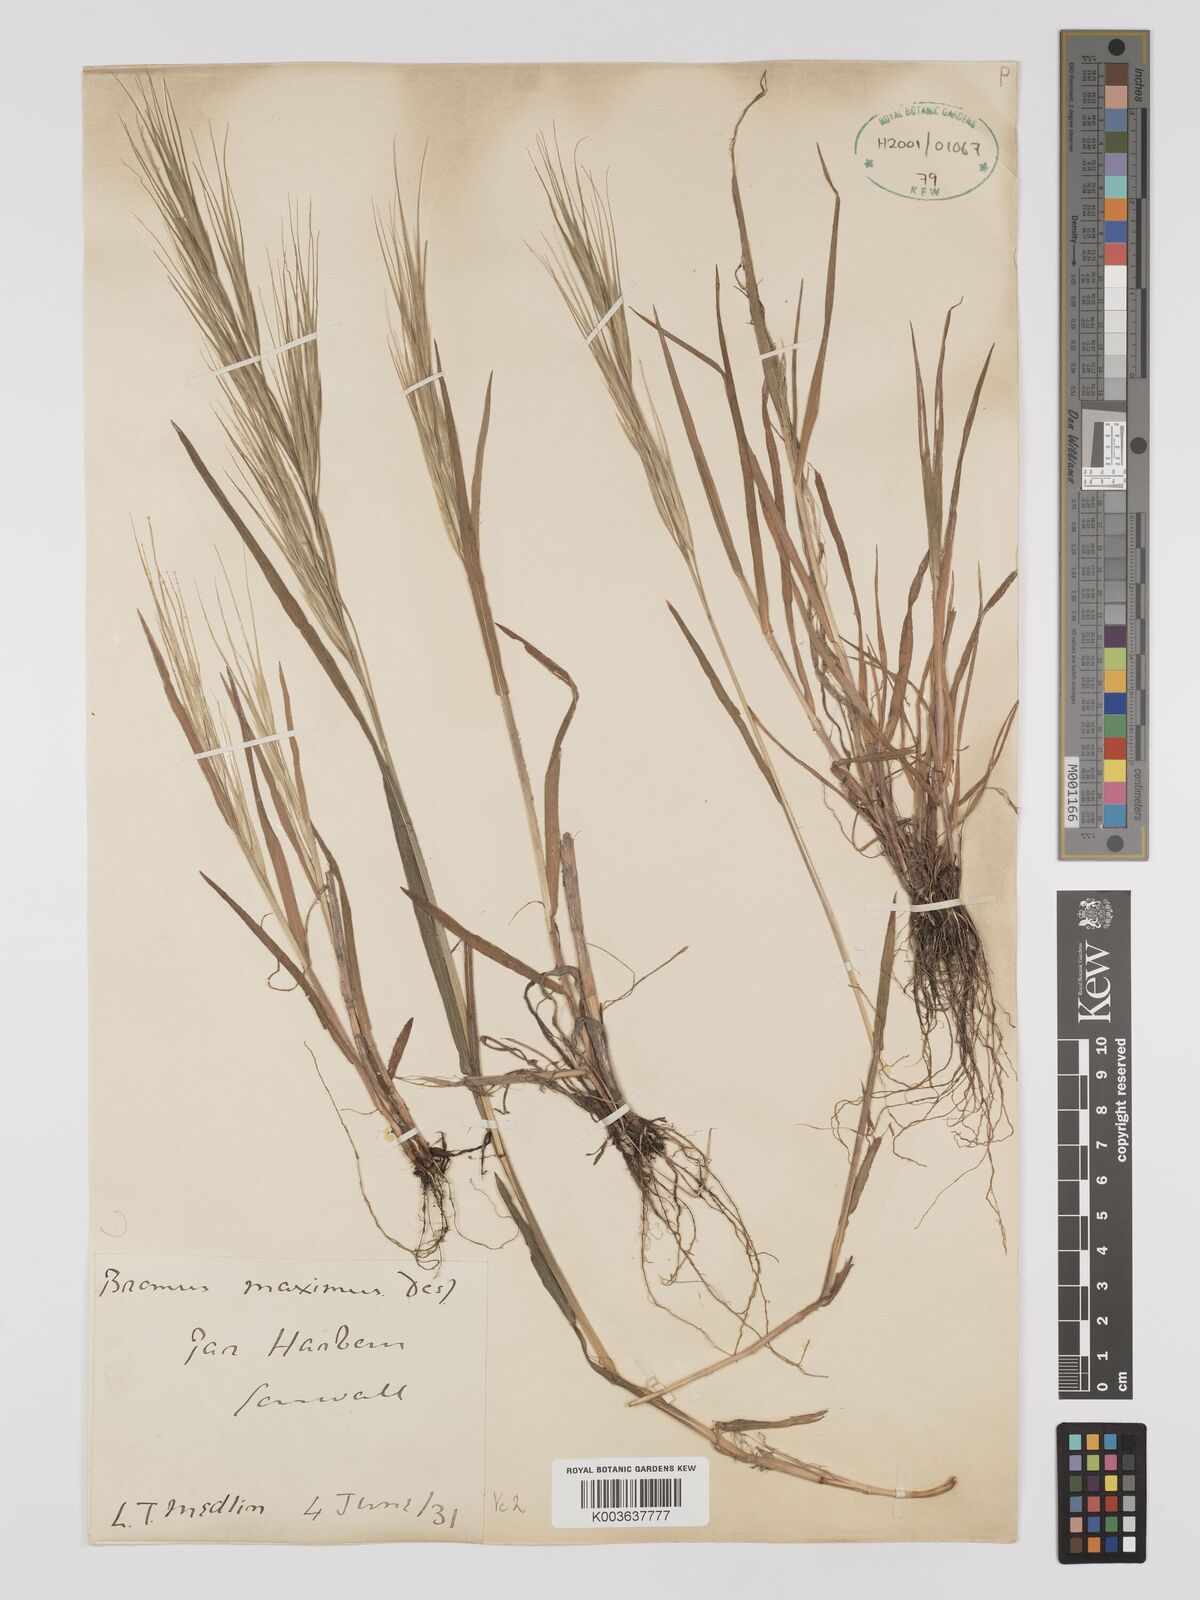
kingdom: Plantae
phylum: Tracheophyta
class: Liliopsida
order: Poales
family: Poaceae
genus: Bromus
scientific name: Bromus
